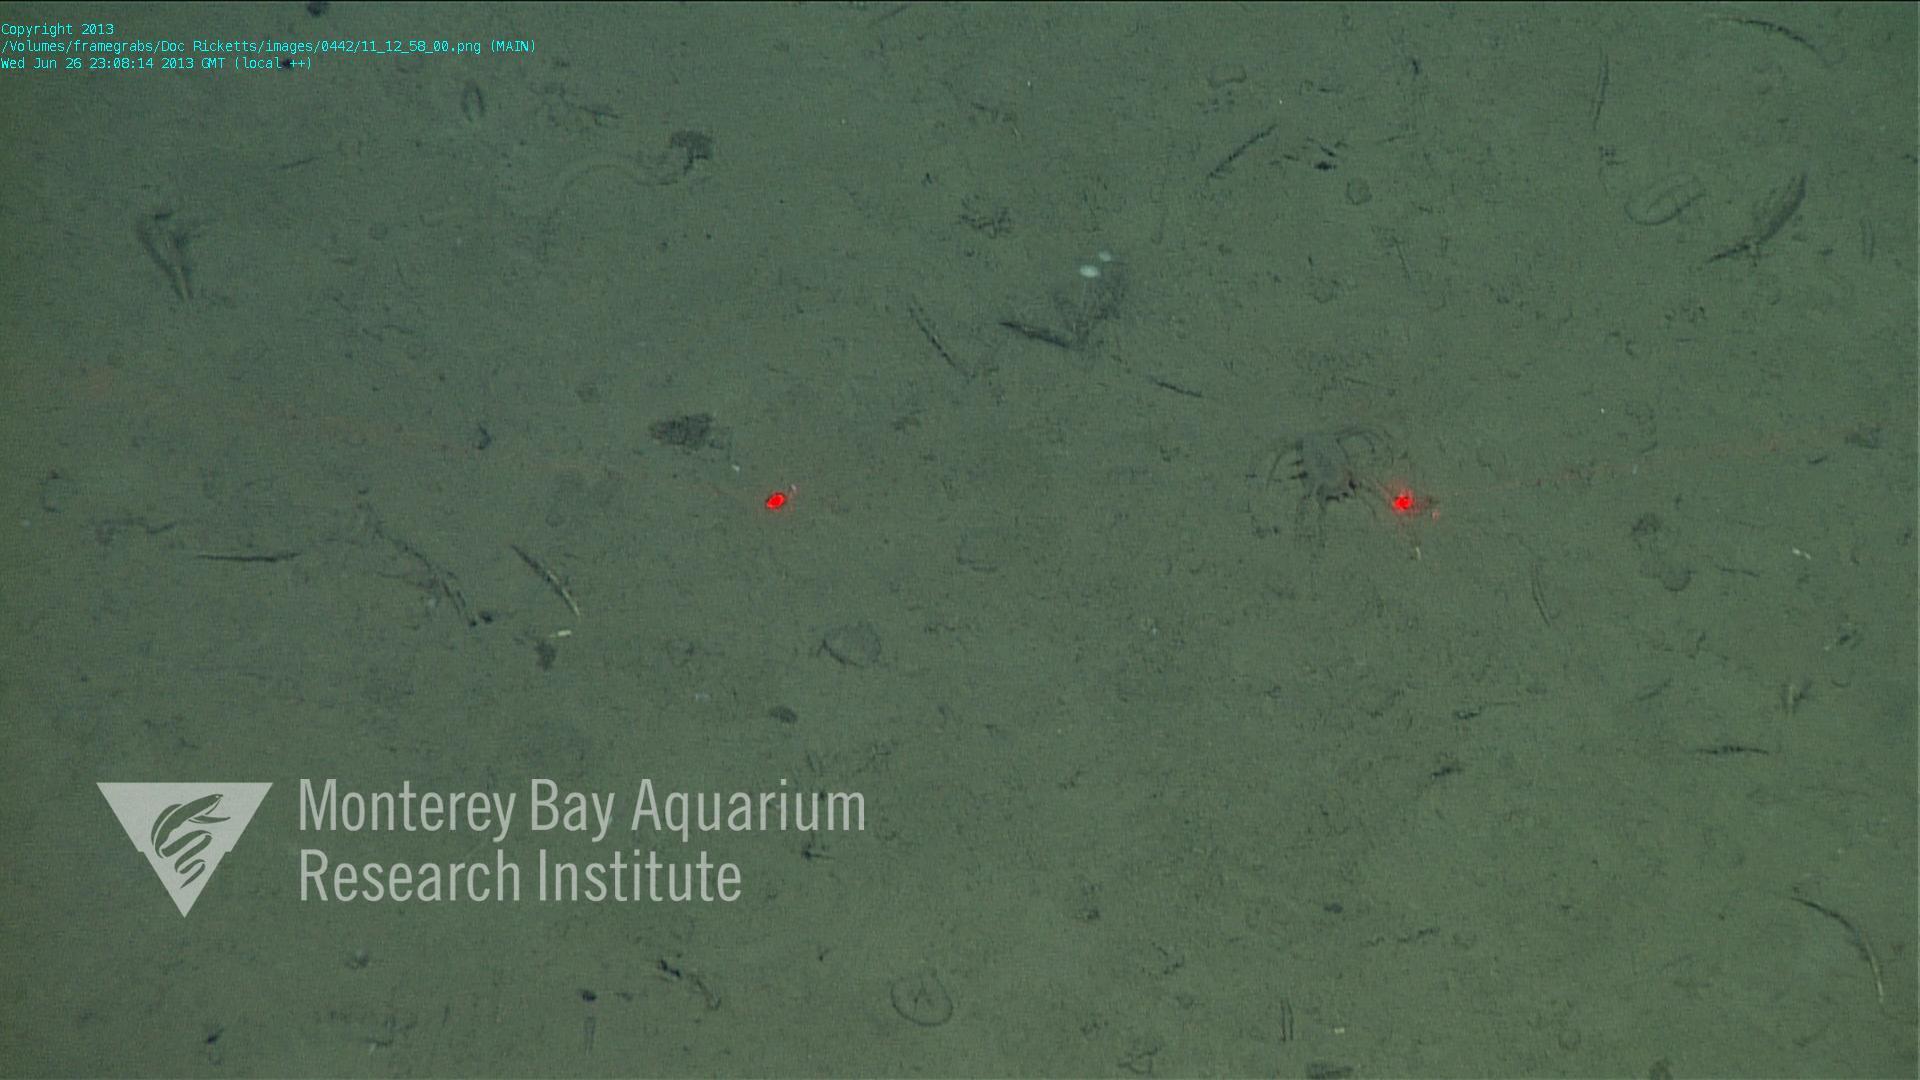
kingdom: Animalia
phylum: Porifera
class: Demospongiae
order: Poecilosclerida
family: Cladorhizidae
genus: Cladorhiza
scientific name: Cladorhiza
